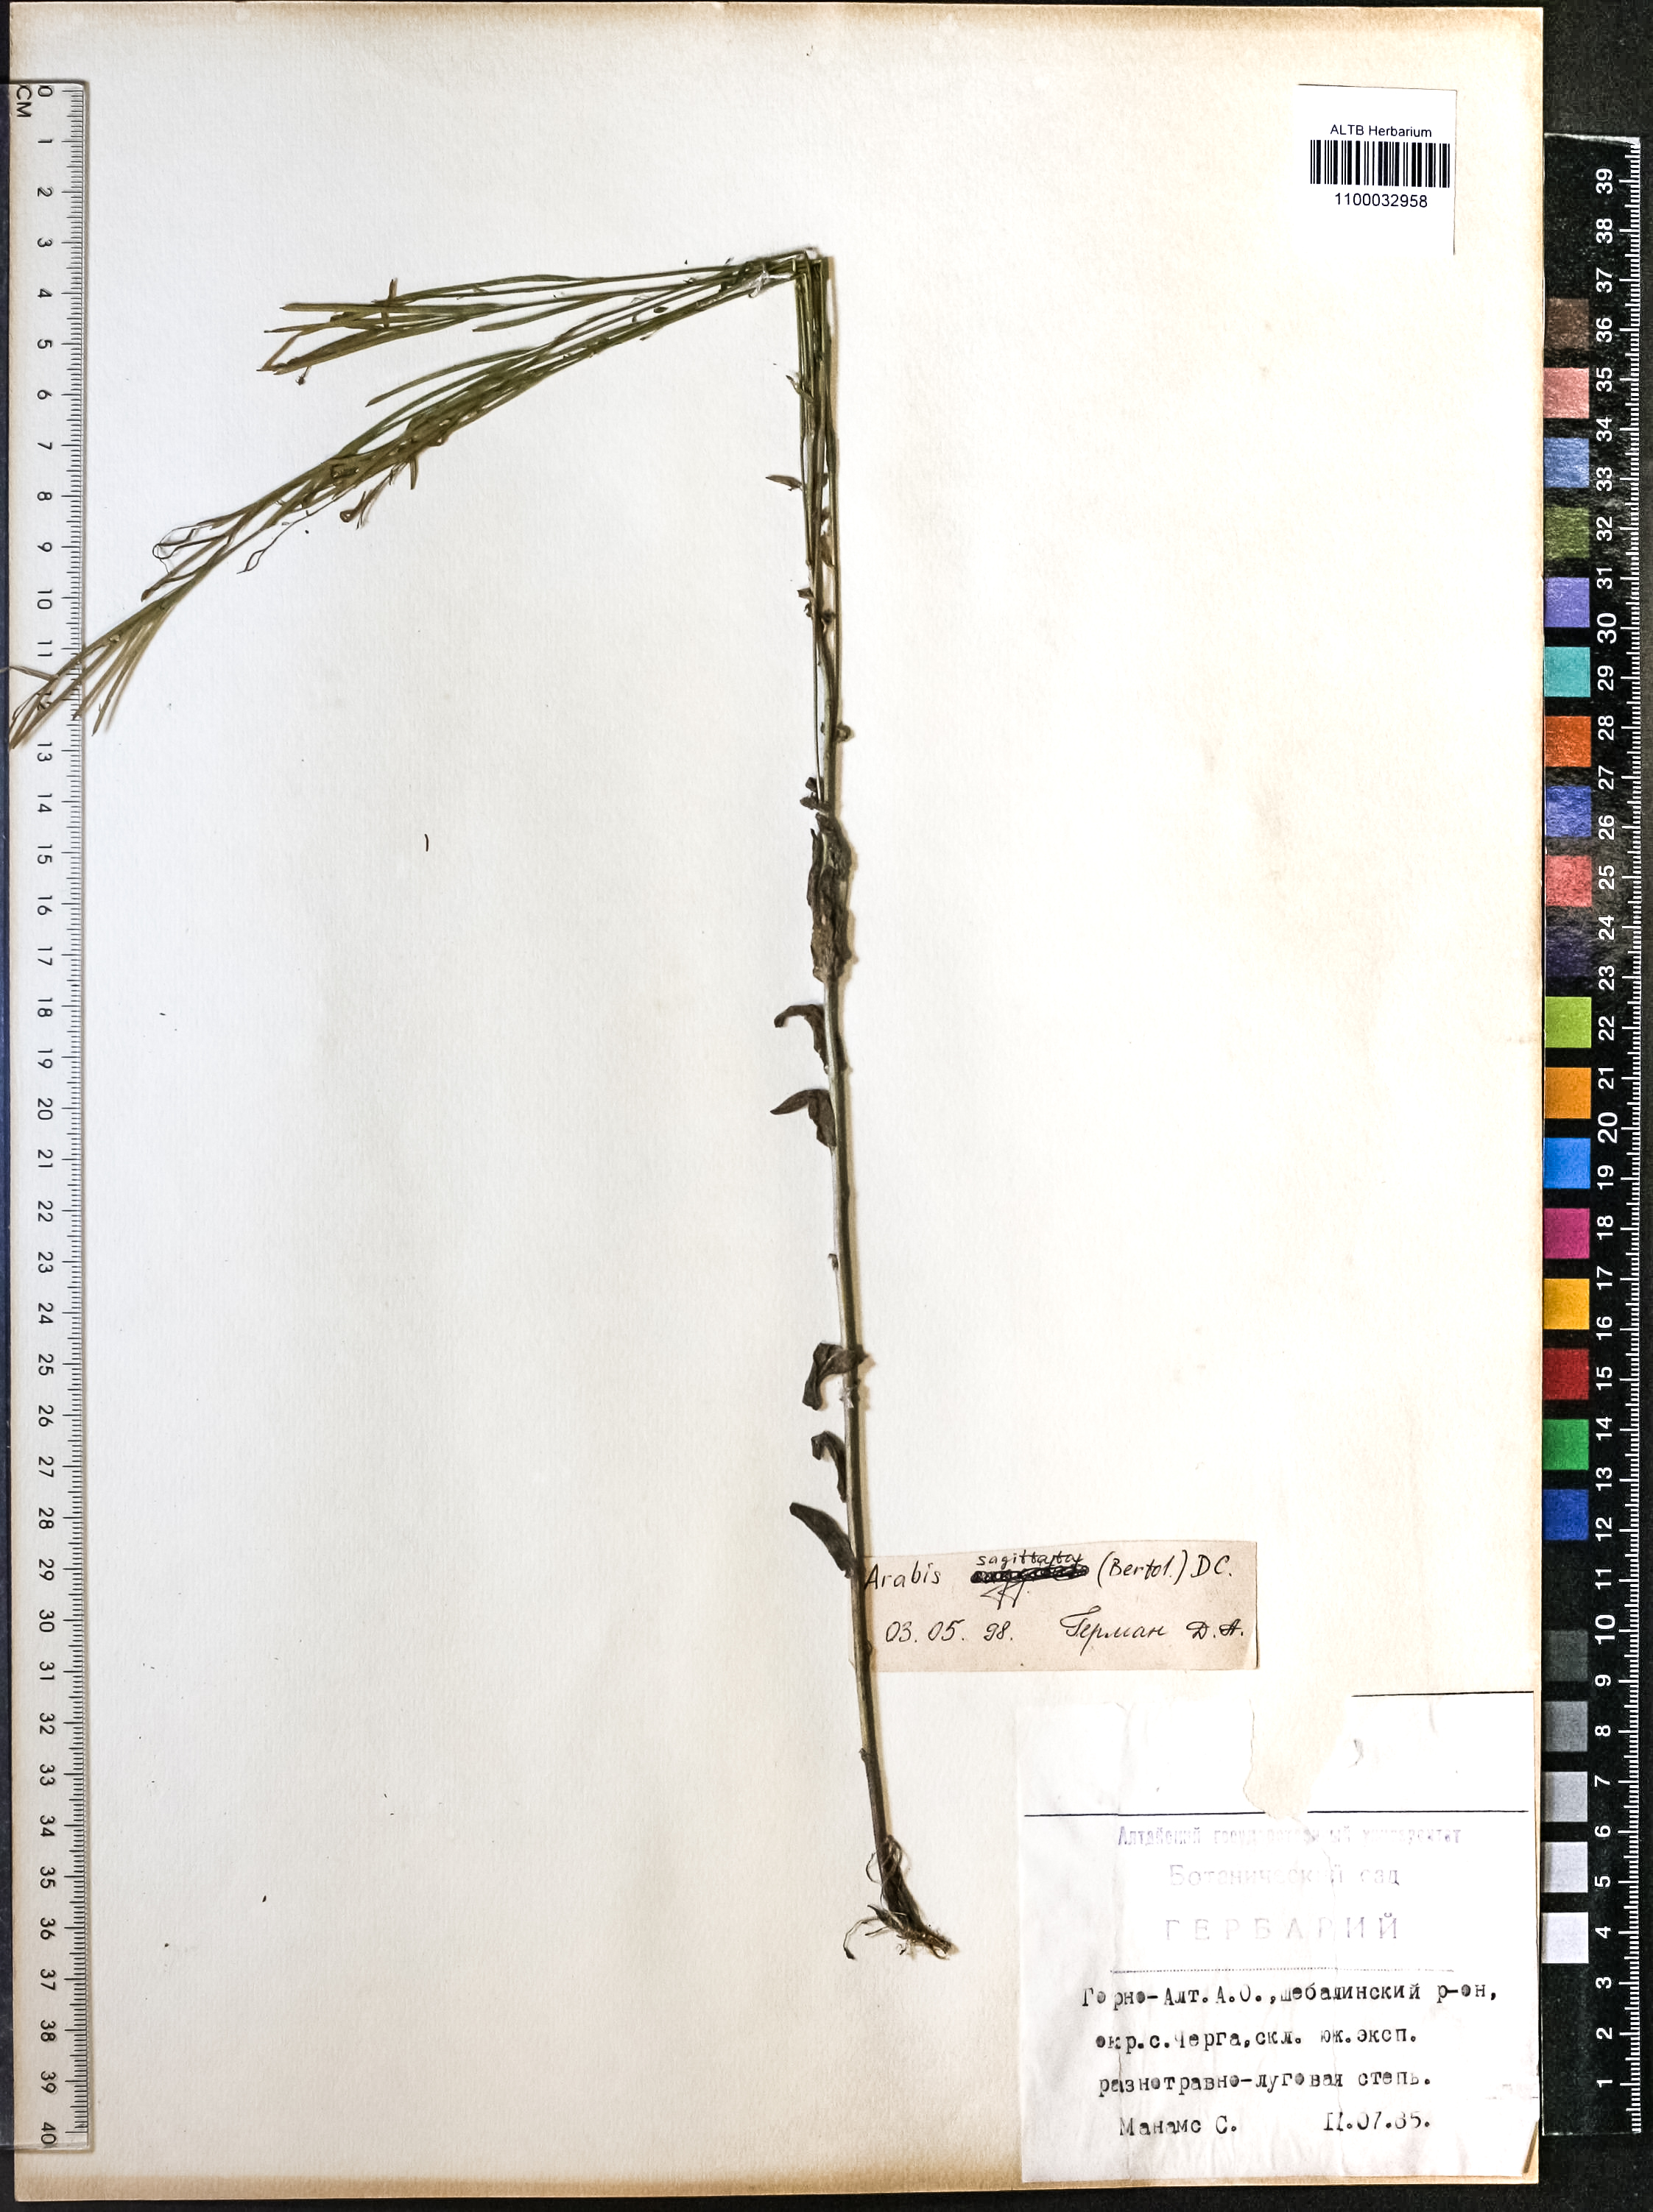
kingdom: Plantae
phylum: Tracheophyta
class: Magnoliopsida
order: Brassicales
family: Brassicaceae
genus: Arabis
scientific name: Arabis sagittata
